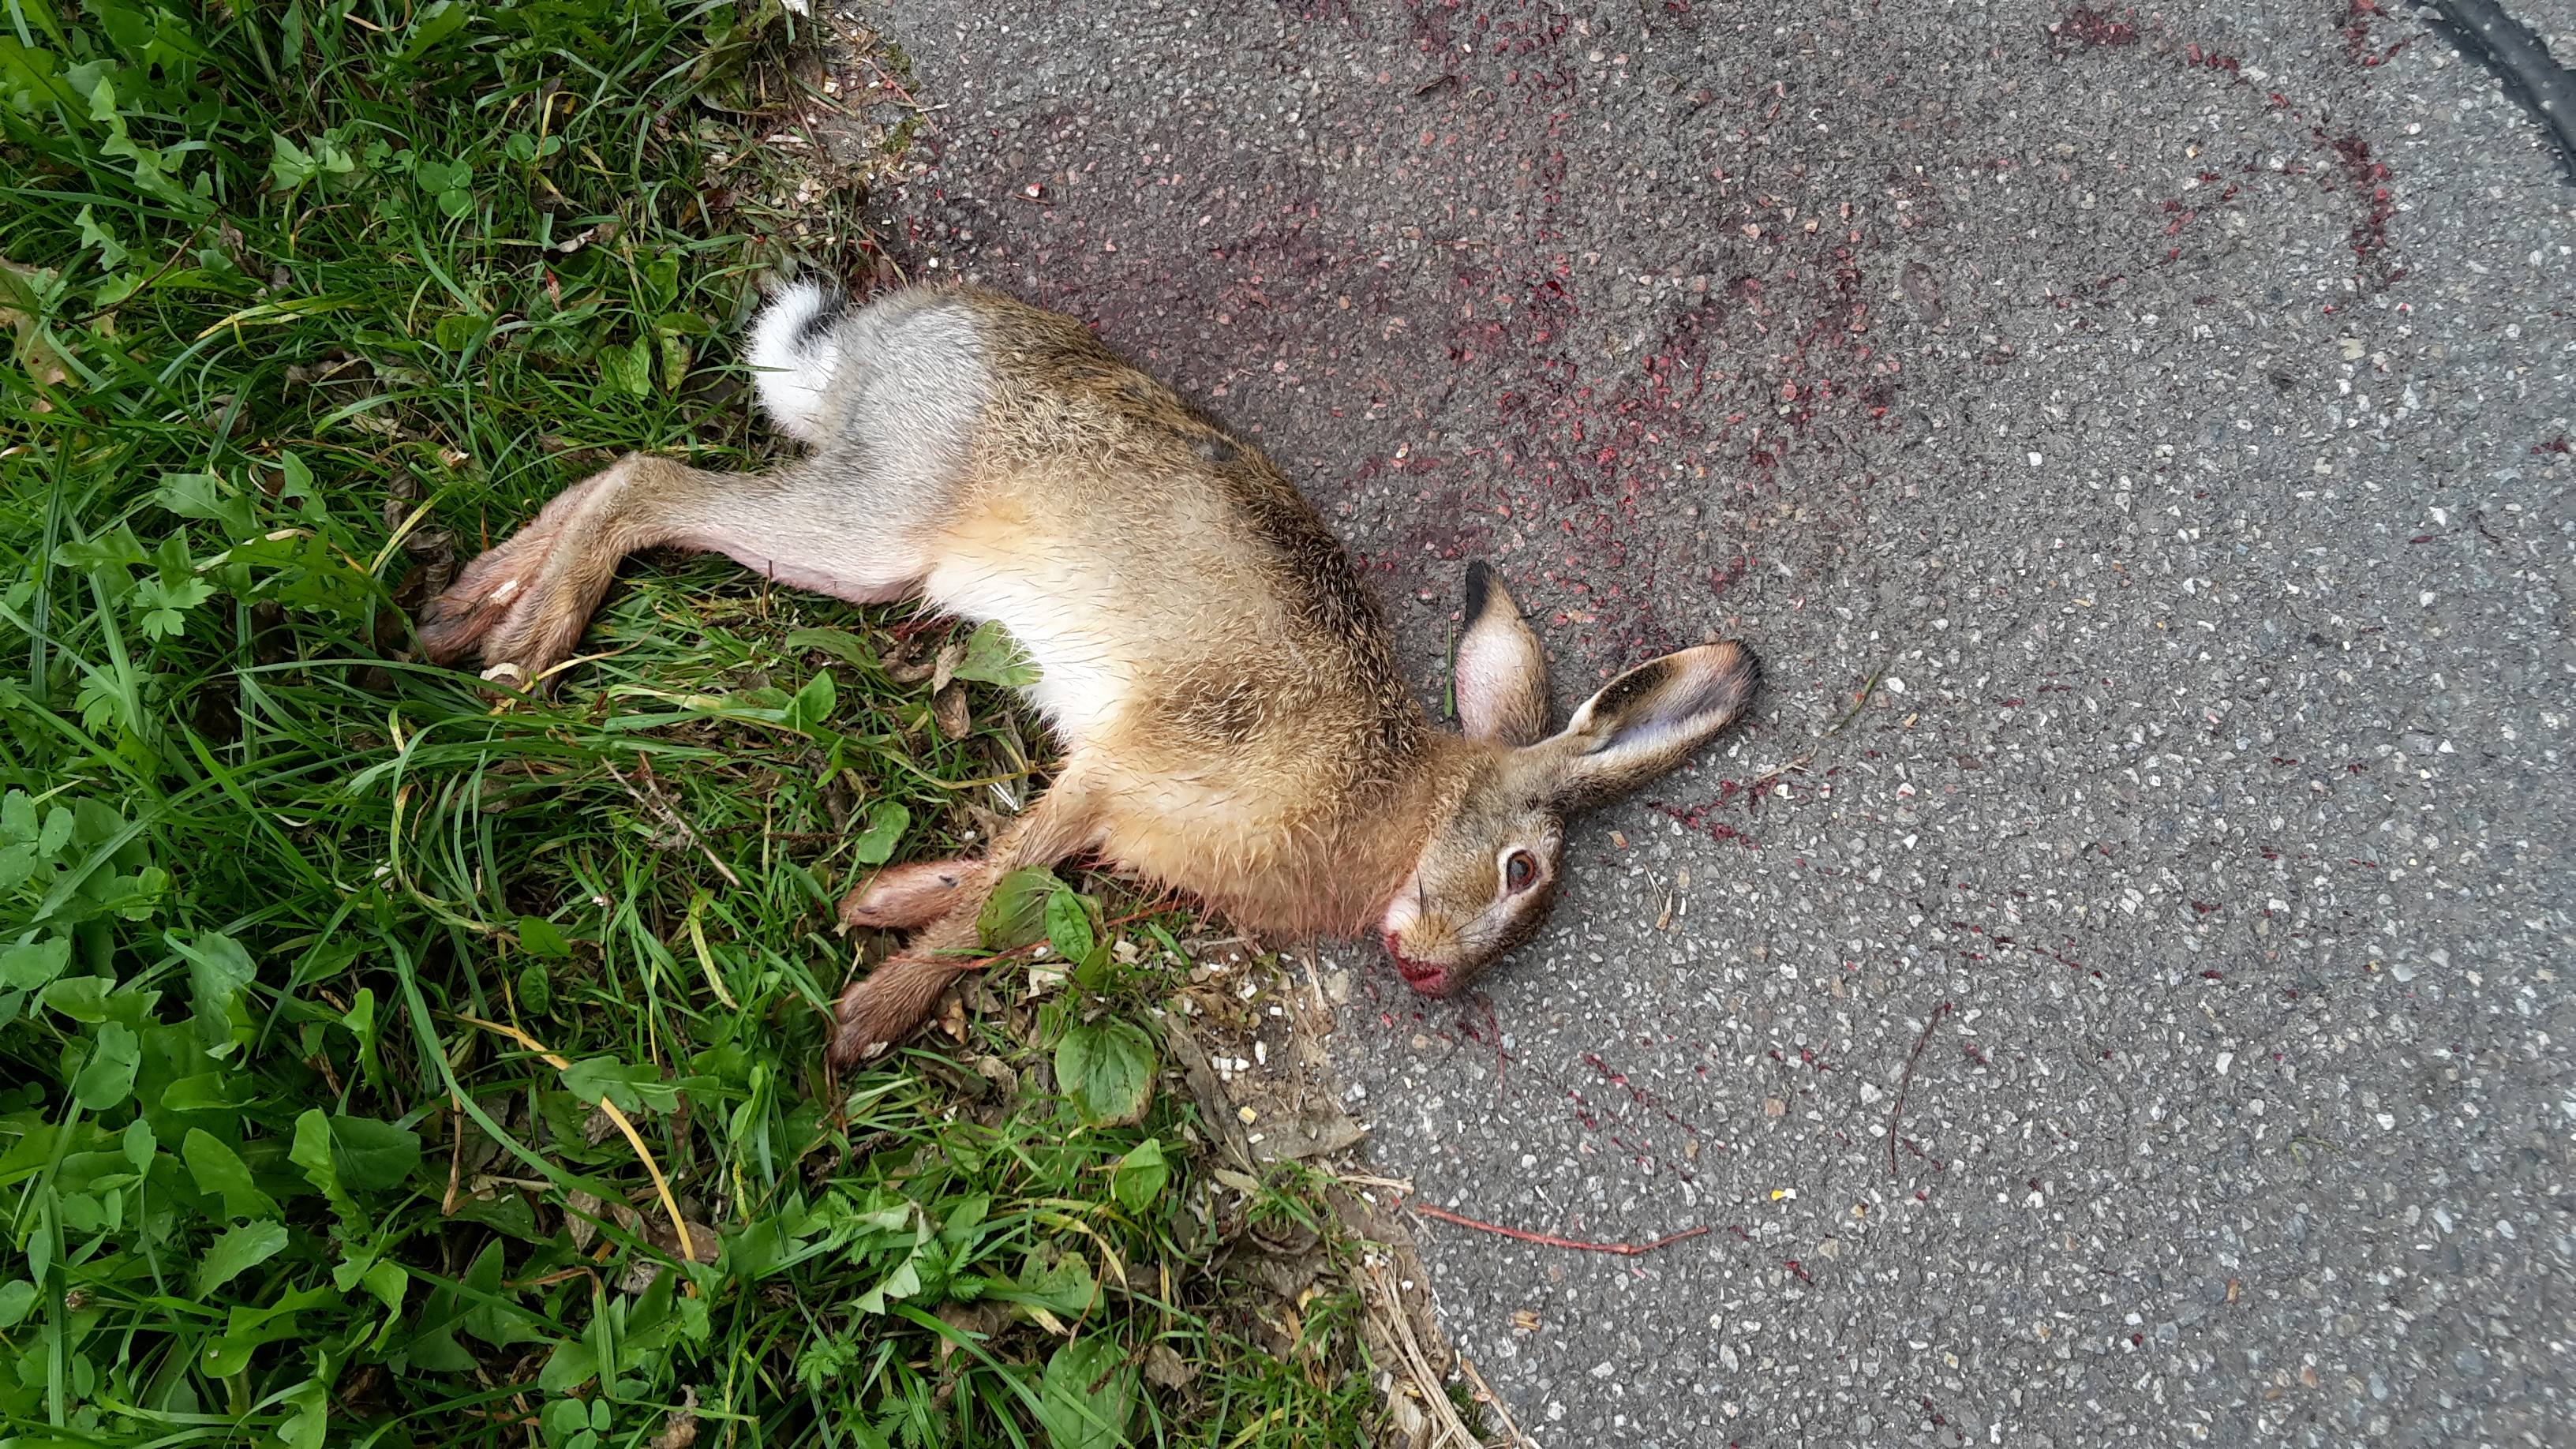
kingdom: Animalia
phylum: Chordata
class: Mammalia
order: Lagomorpha
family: Leporidae
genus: Lepus
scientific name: Lepus europaeus
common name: European hare
